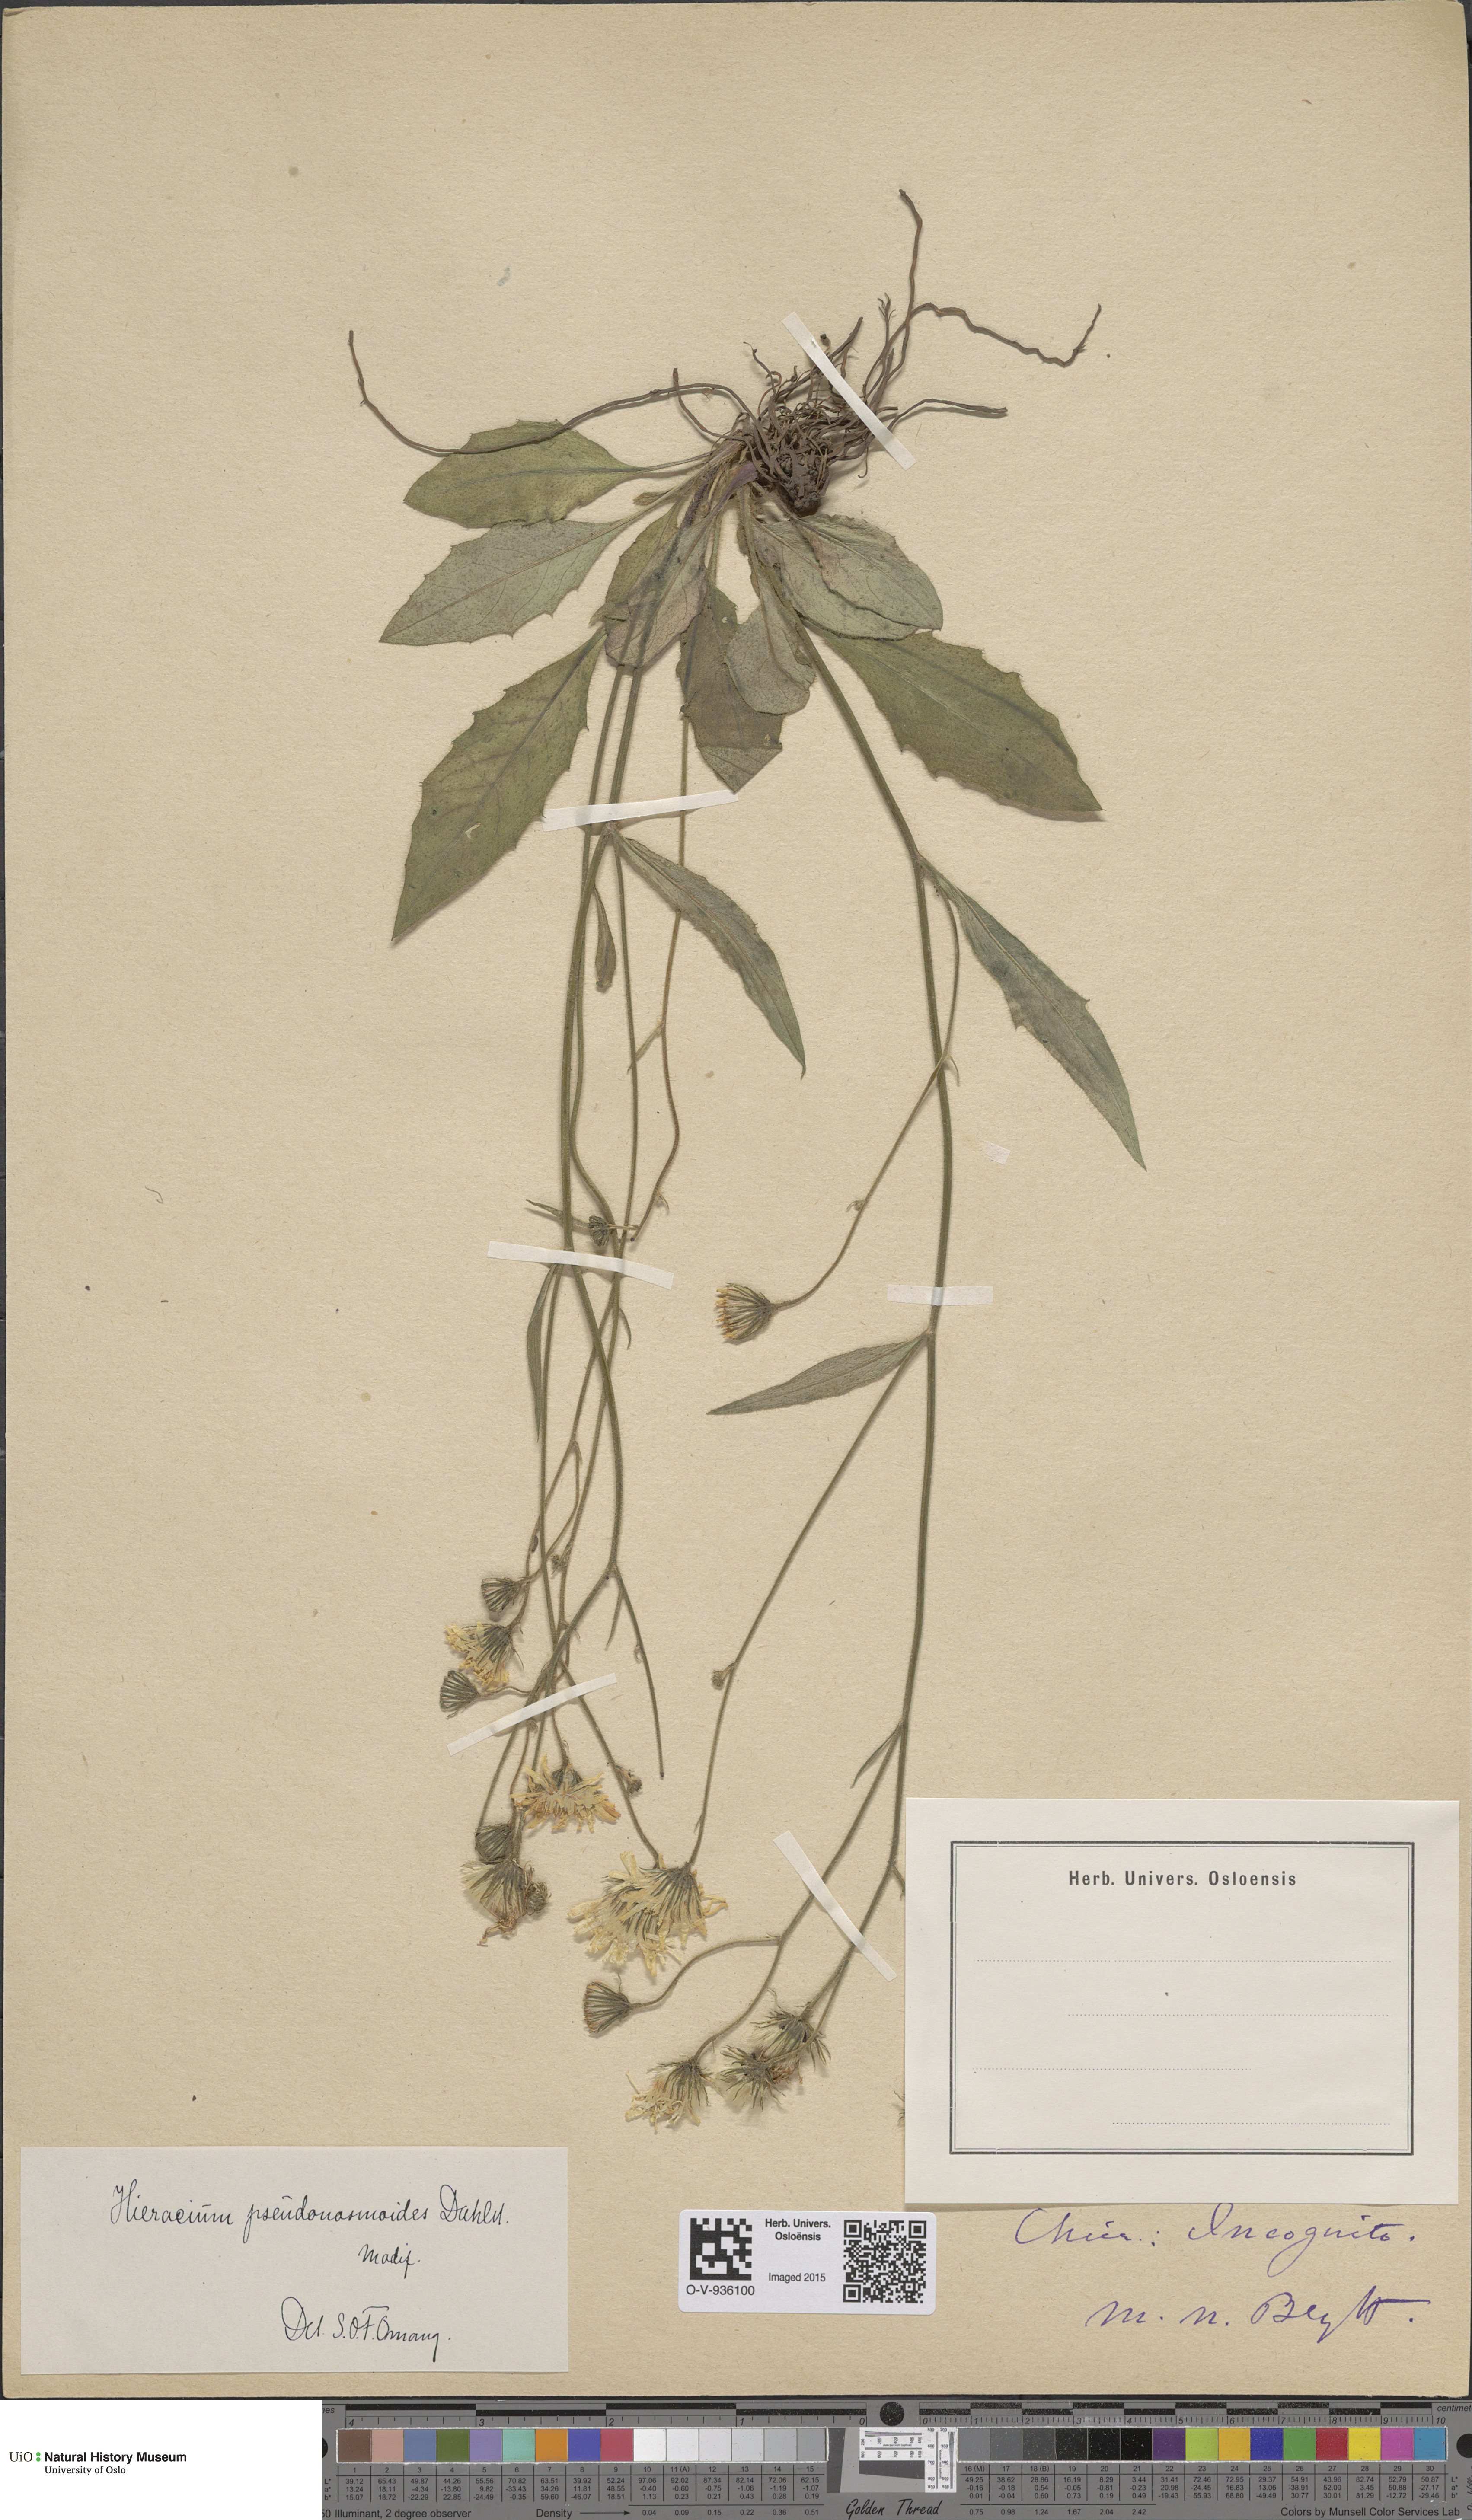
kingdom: Plantae
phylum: Tracheophyta
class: Magnoliopsida
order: Asterales
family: Asteraceae
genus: Hieracium
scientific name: Hieracium saxifragum
